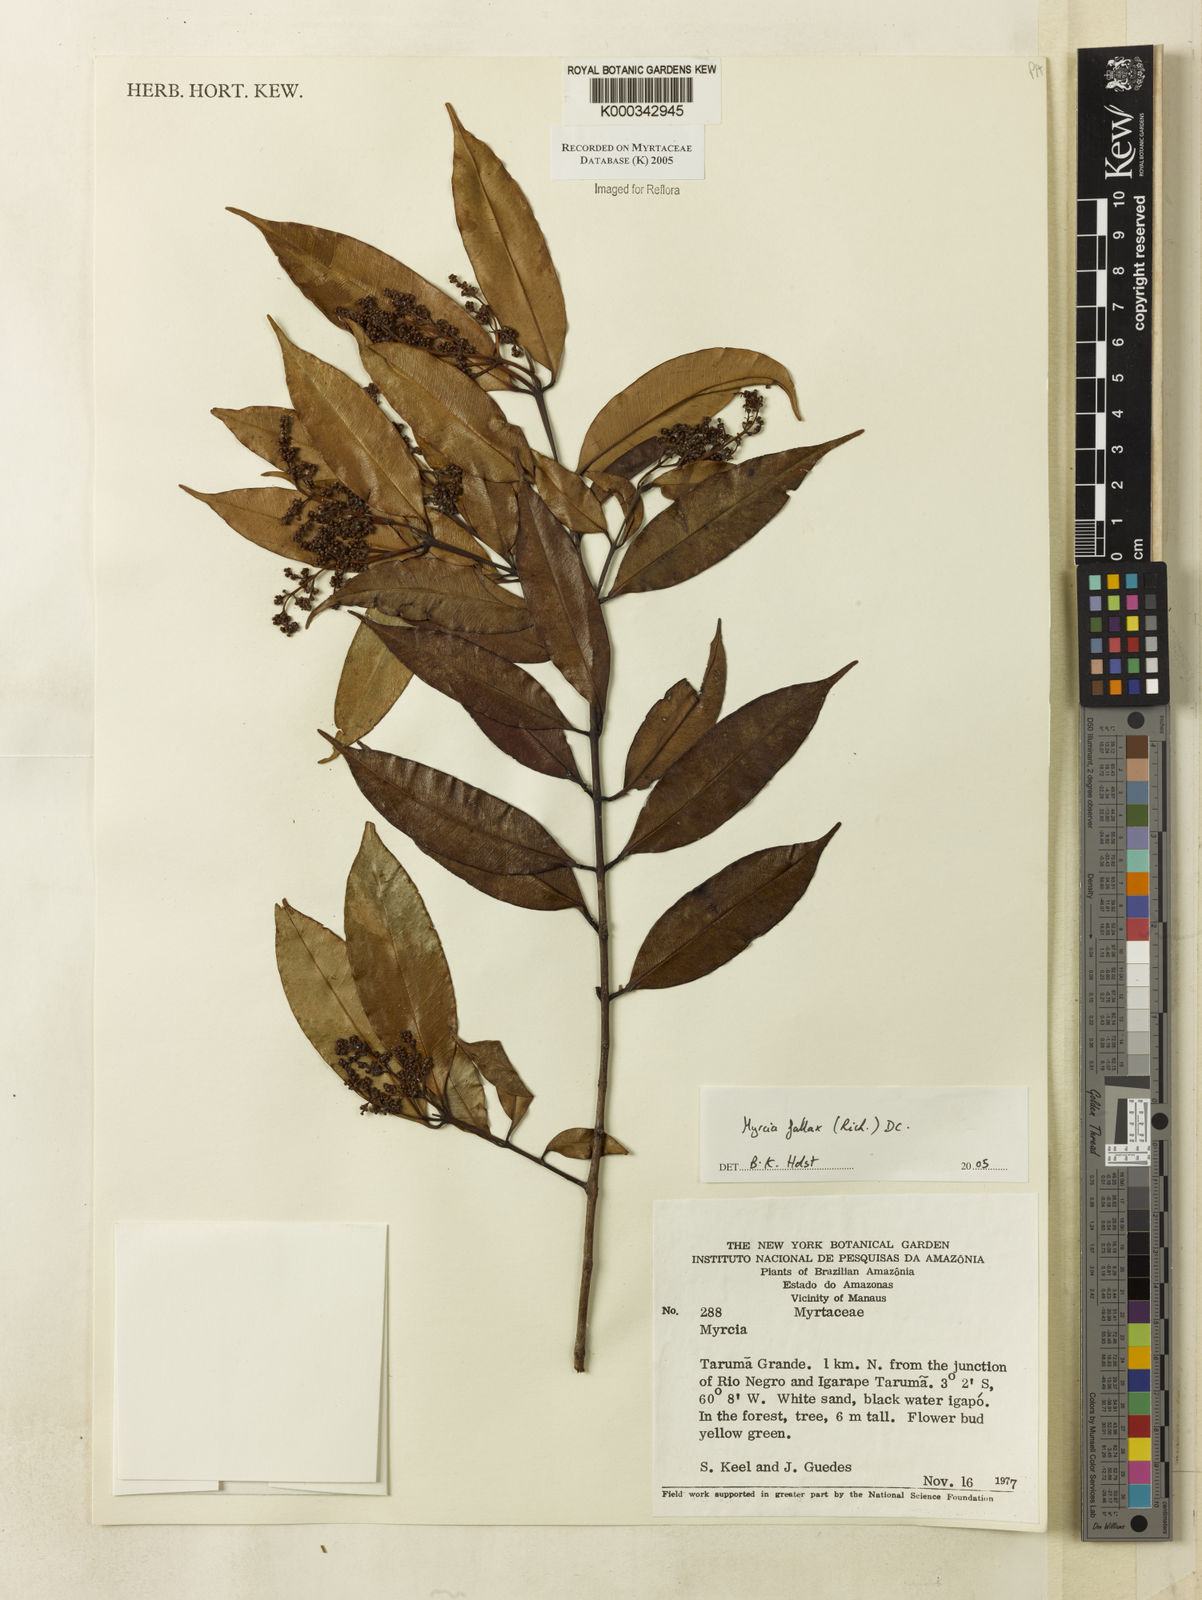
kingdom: Plantae
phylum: Tracheophyta
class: Magnoliopsida
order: Myrtales
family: Myrtaceae
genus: Myrcia
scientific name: Myrcia splendens
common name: Surinam cherry
